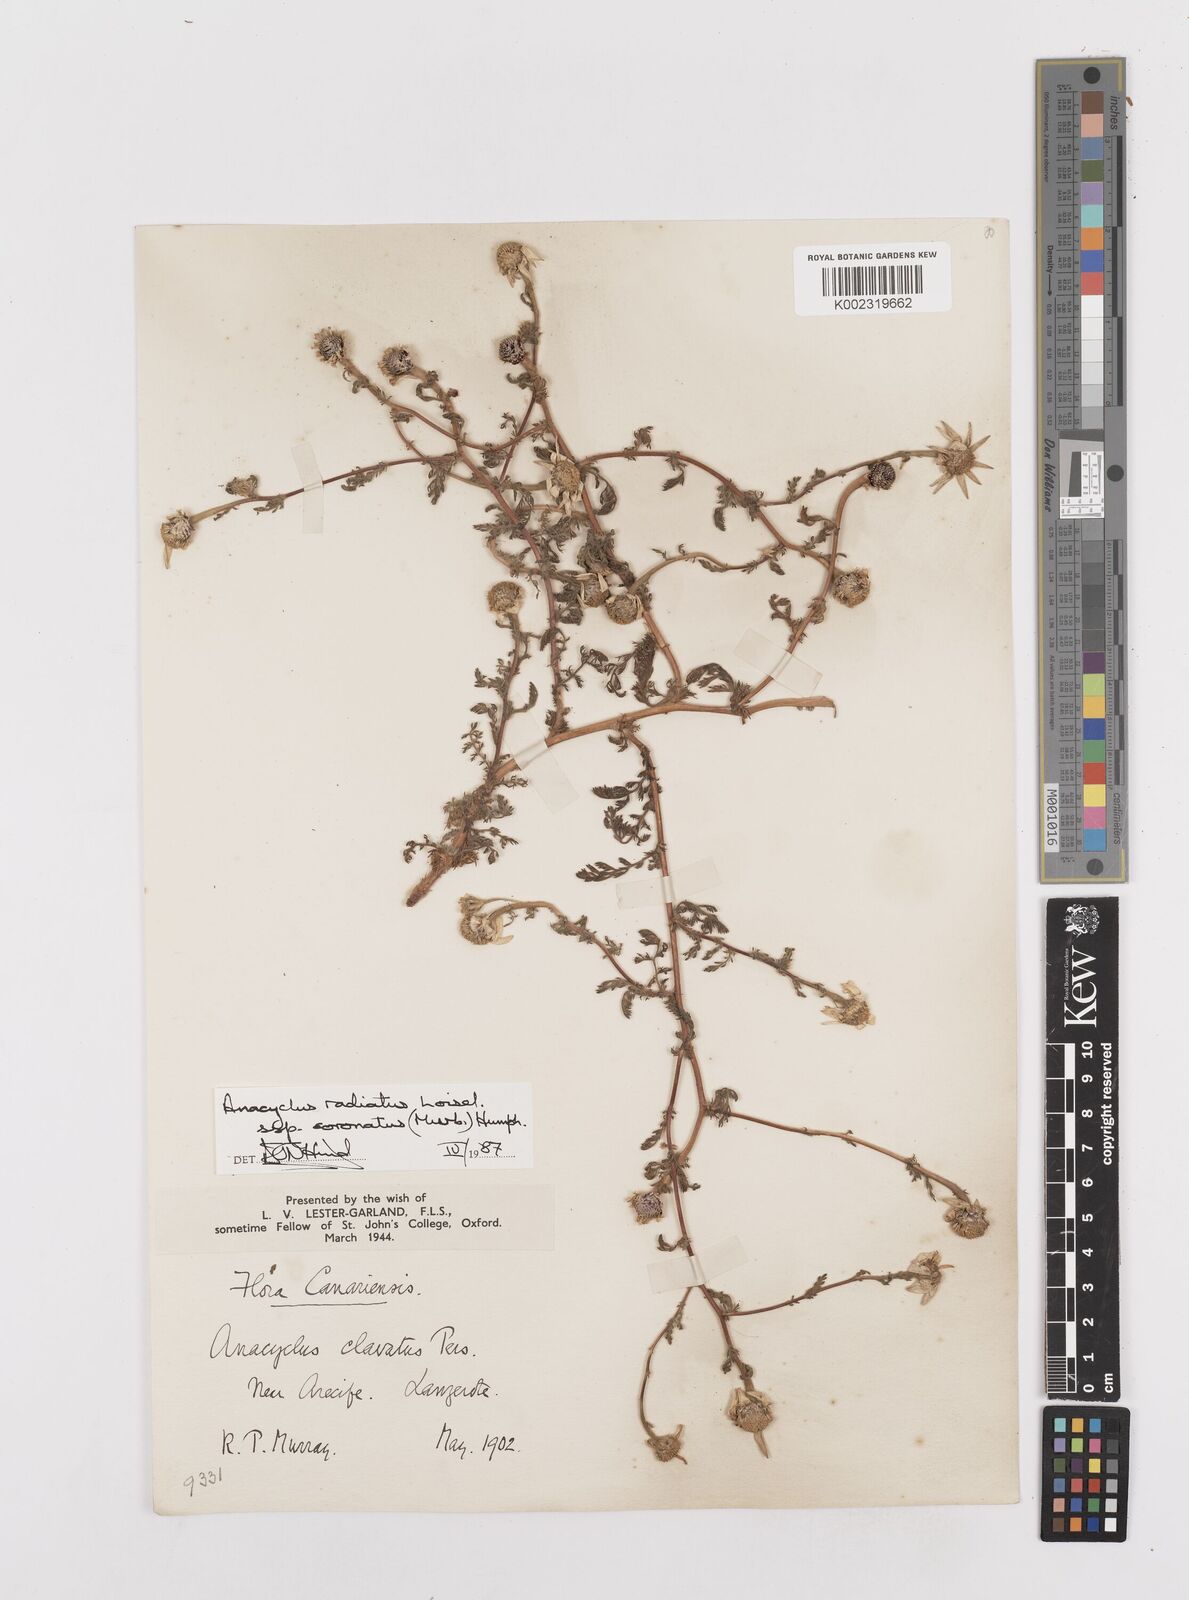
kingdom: Plantae
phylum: Tracheophyta
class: Magnoliopsida
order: Asterales
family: Asteraceae
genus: Anacyclus
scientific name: Anacyclus radiatus
